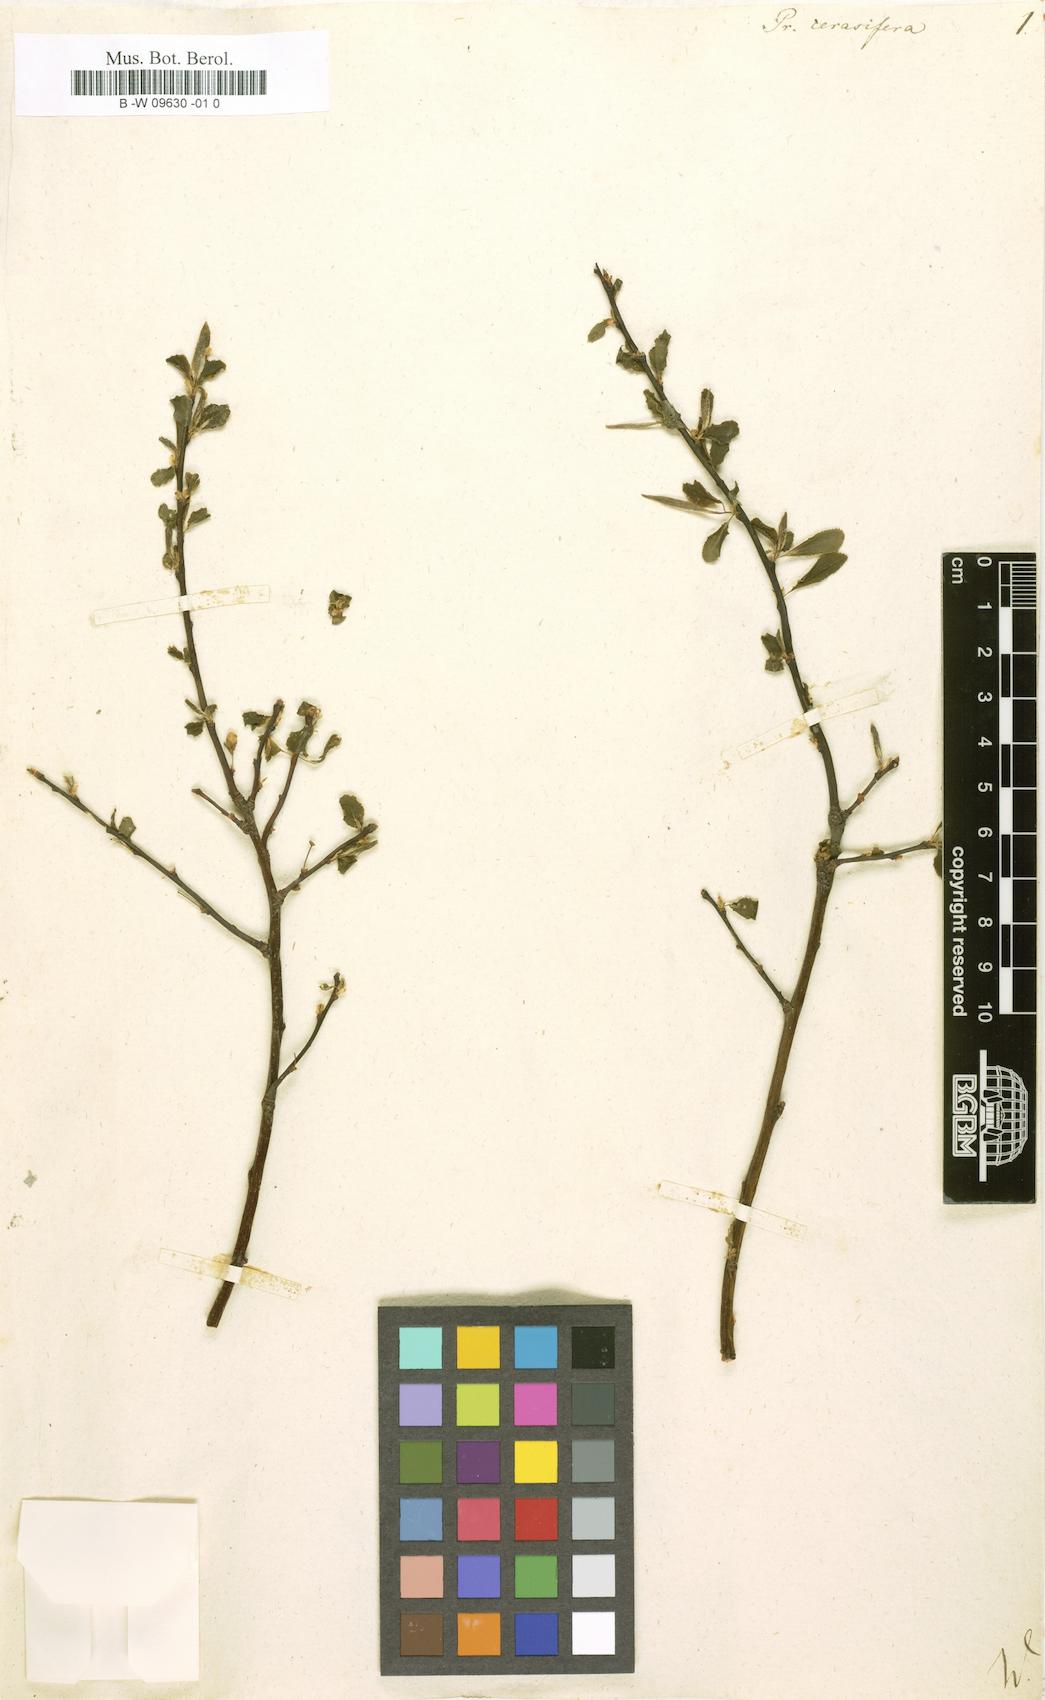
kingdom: Plantae
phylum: Tracheophyta
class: Magnoliopsida
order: Rosales
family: Rosaceae
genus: Prunus
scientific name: Prunus cerasifera
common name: Cherry plum
